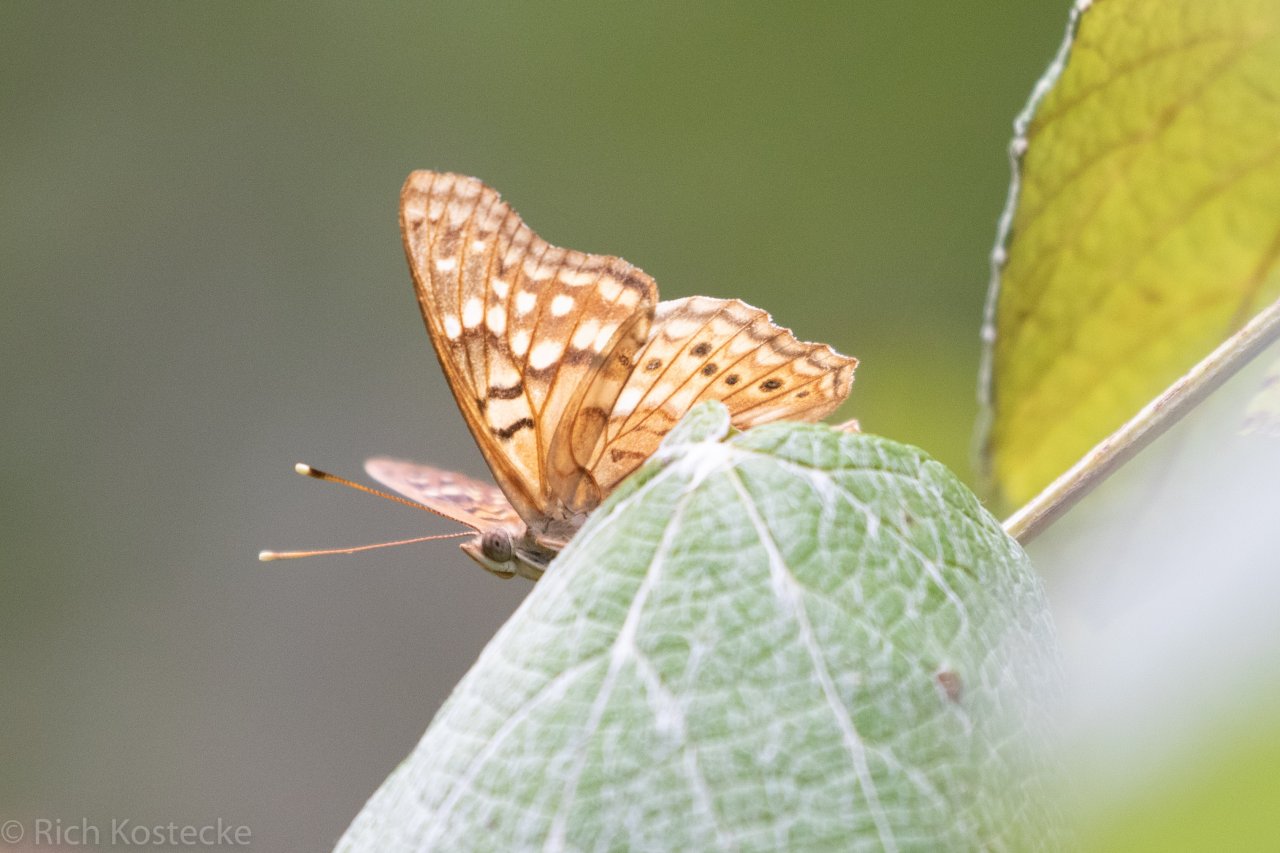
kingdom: Animalia
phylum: Arthropoda
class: Insecta
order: Lepidoptera
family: Nymphalidae
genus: Asterocampa
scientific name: Asterocampa clyton
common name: Tawny Emperor
